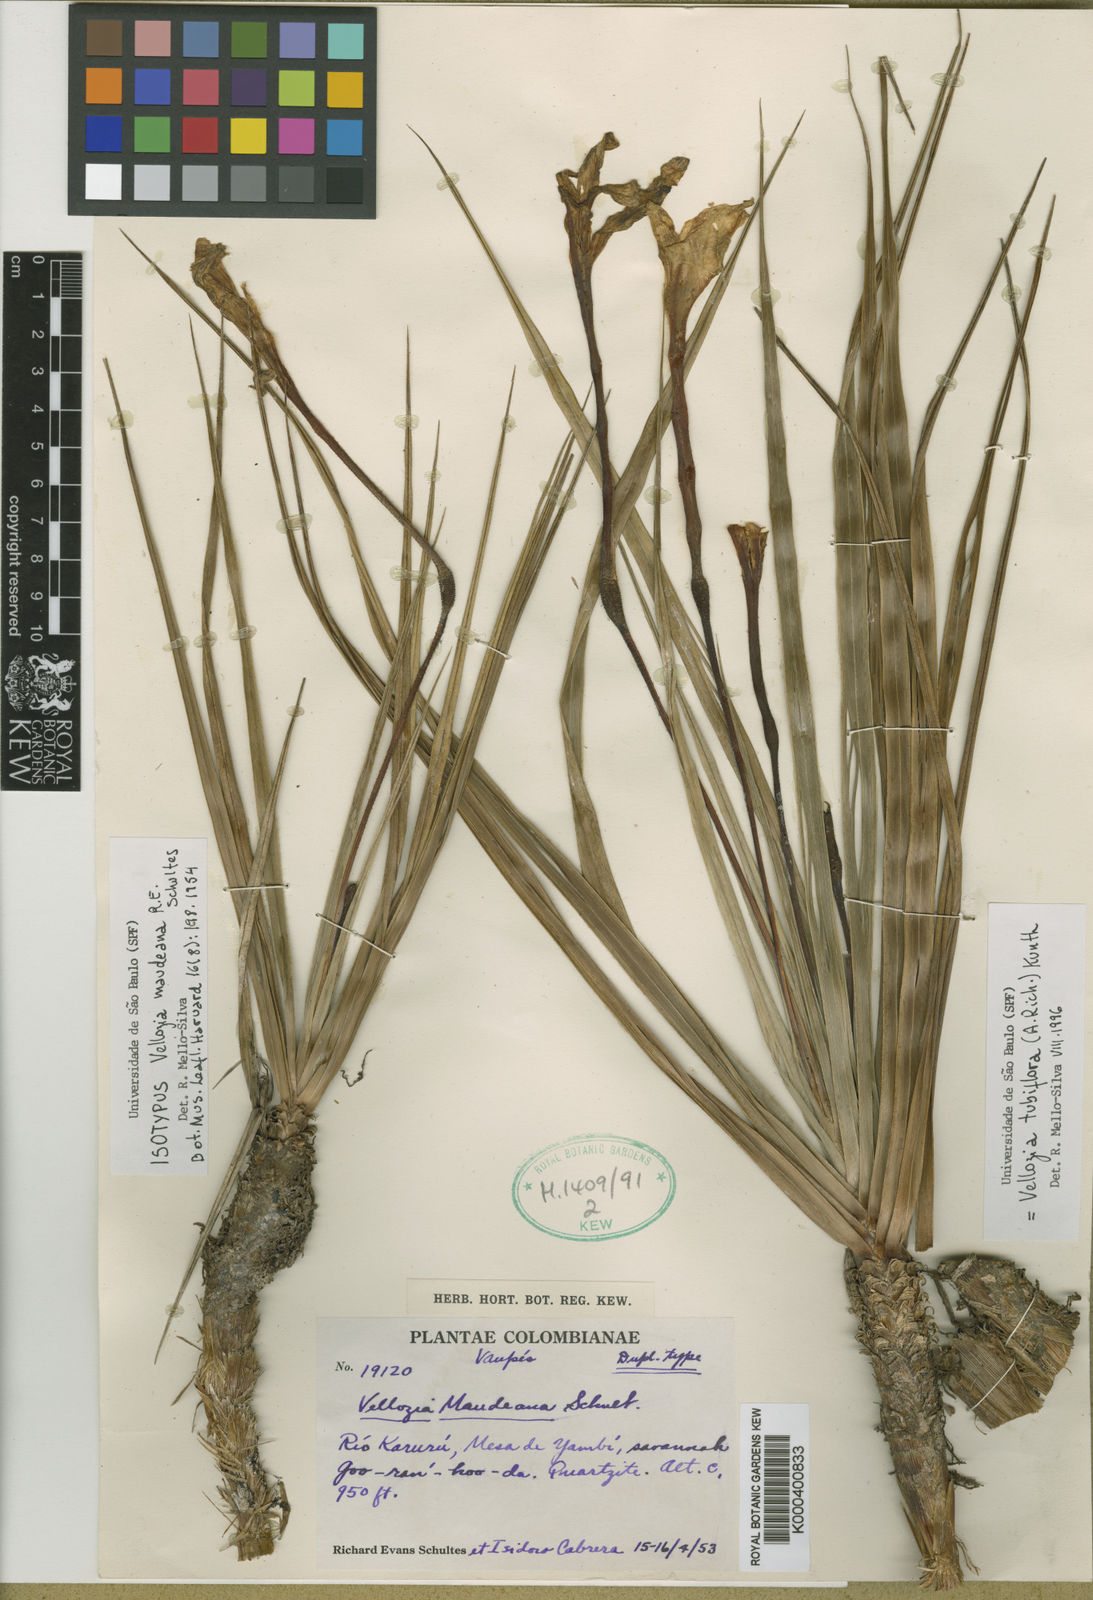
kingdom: Plantae
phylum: Tracheophyta
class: Liliopsida
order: Pandanales
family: Velloziaceae
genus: Vellozia
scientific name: Vellozia tubiflora
